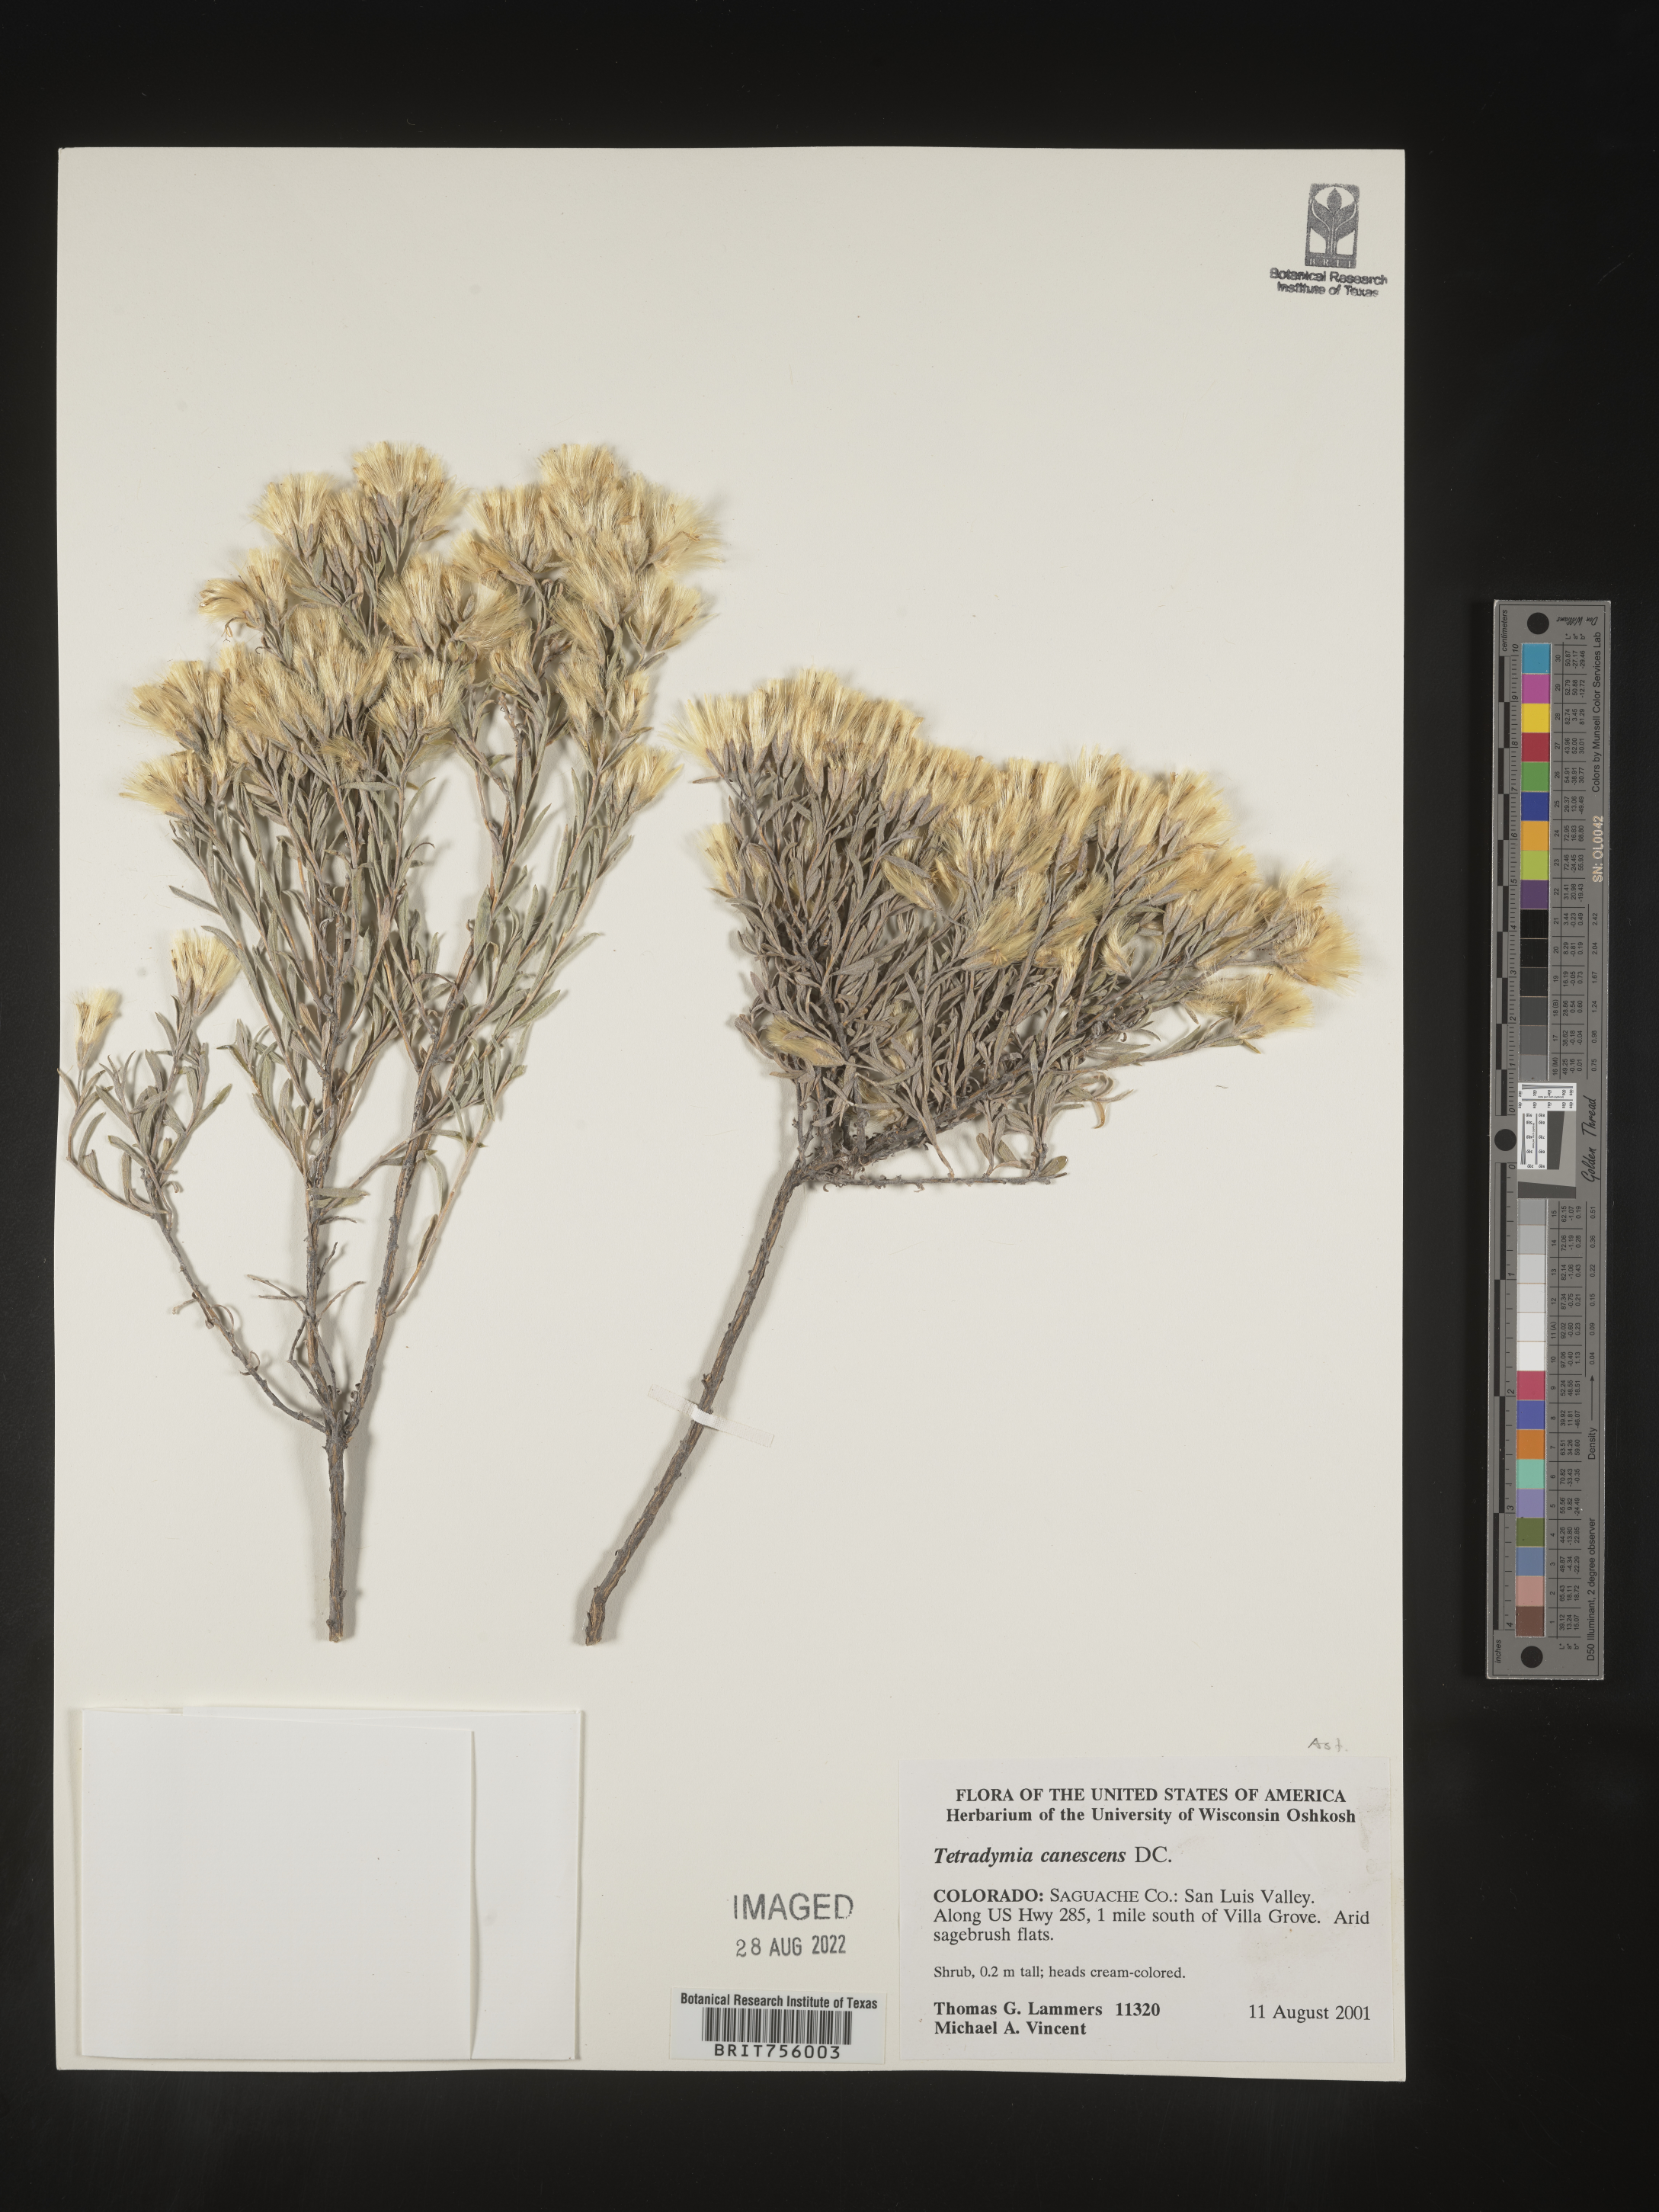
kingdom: Plantae
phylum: Tracheophyta
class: Magnoliopsida
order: Asterales
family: Asteraceae
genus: Tetradymia
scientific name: Tetradymia canescens
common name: Spineless horsebrush
